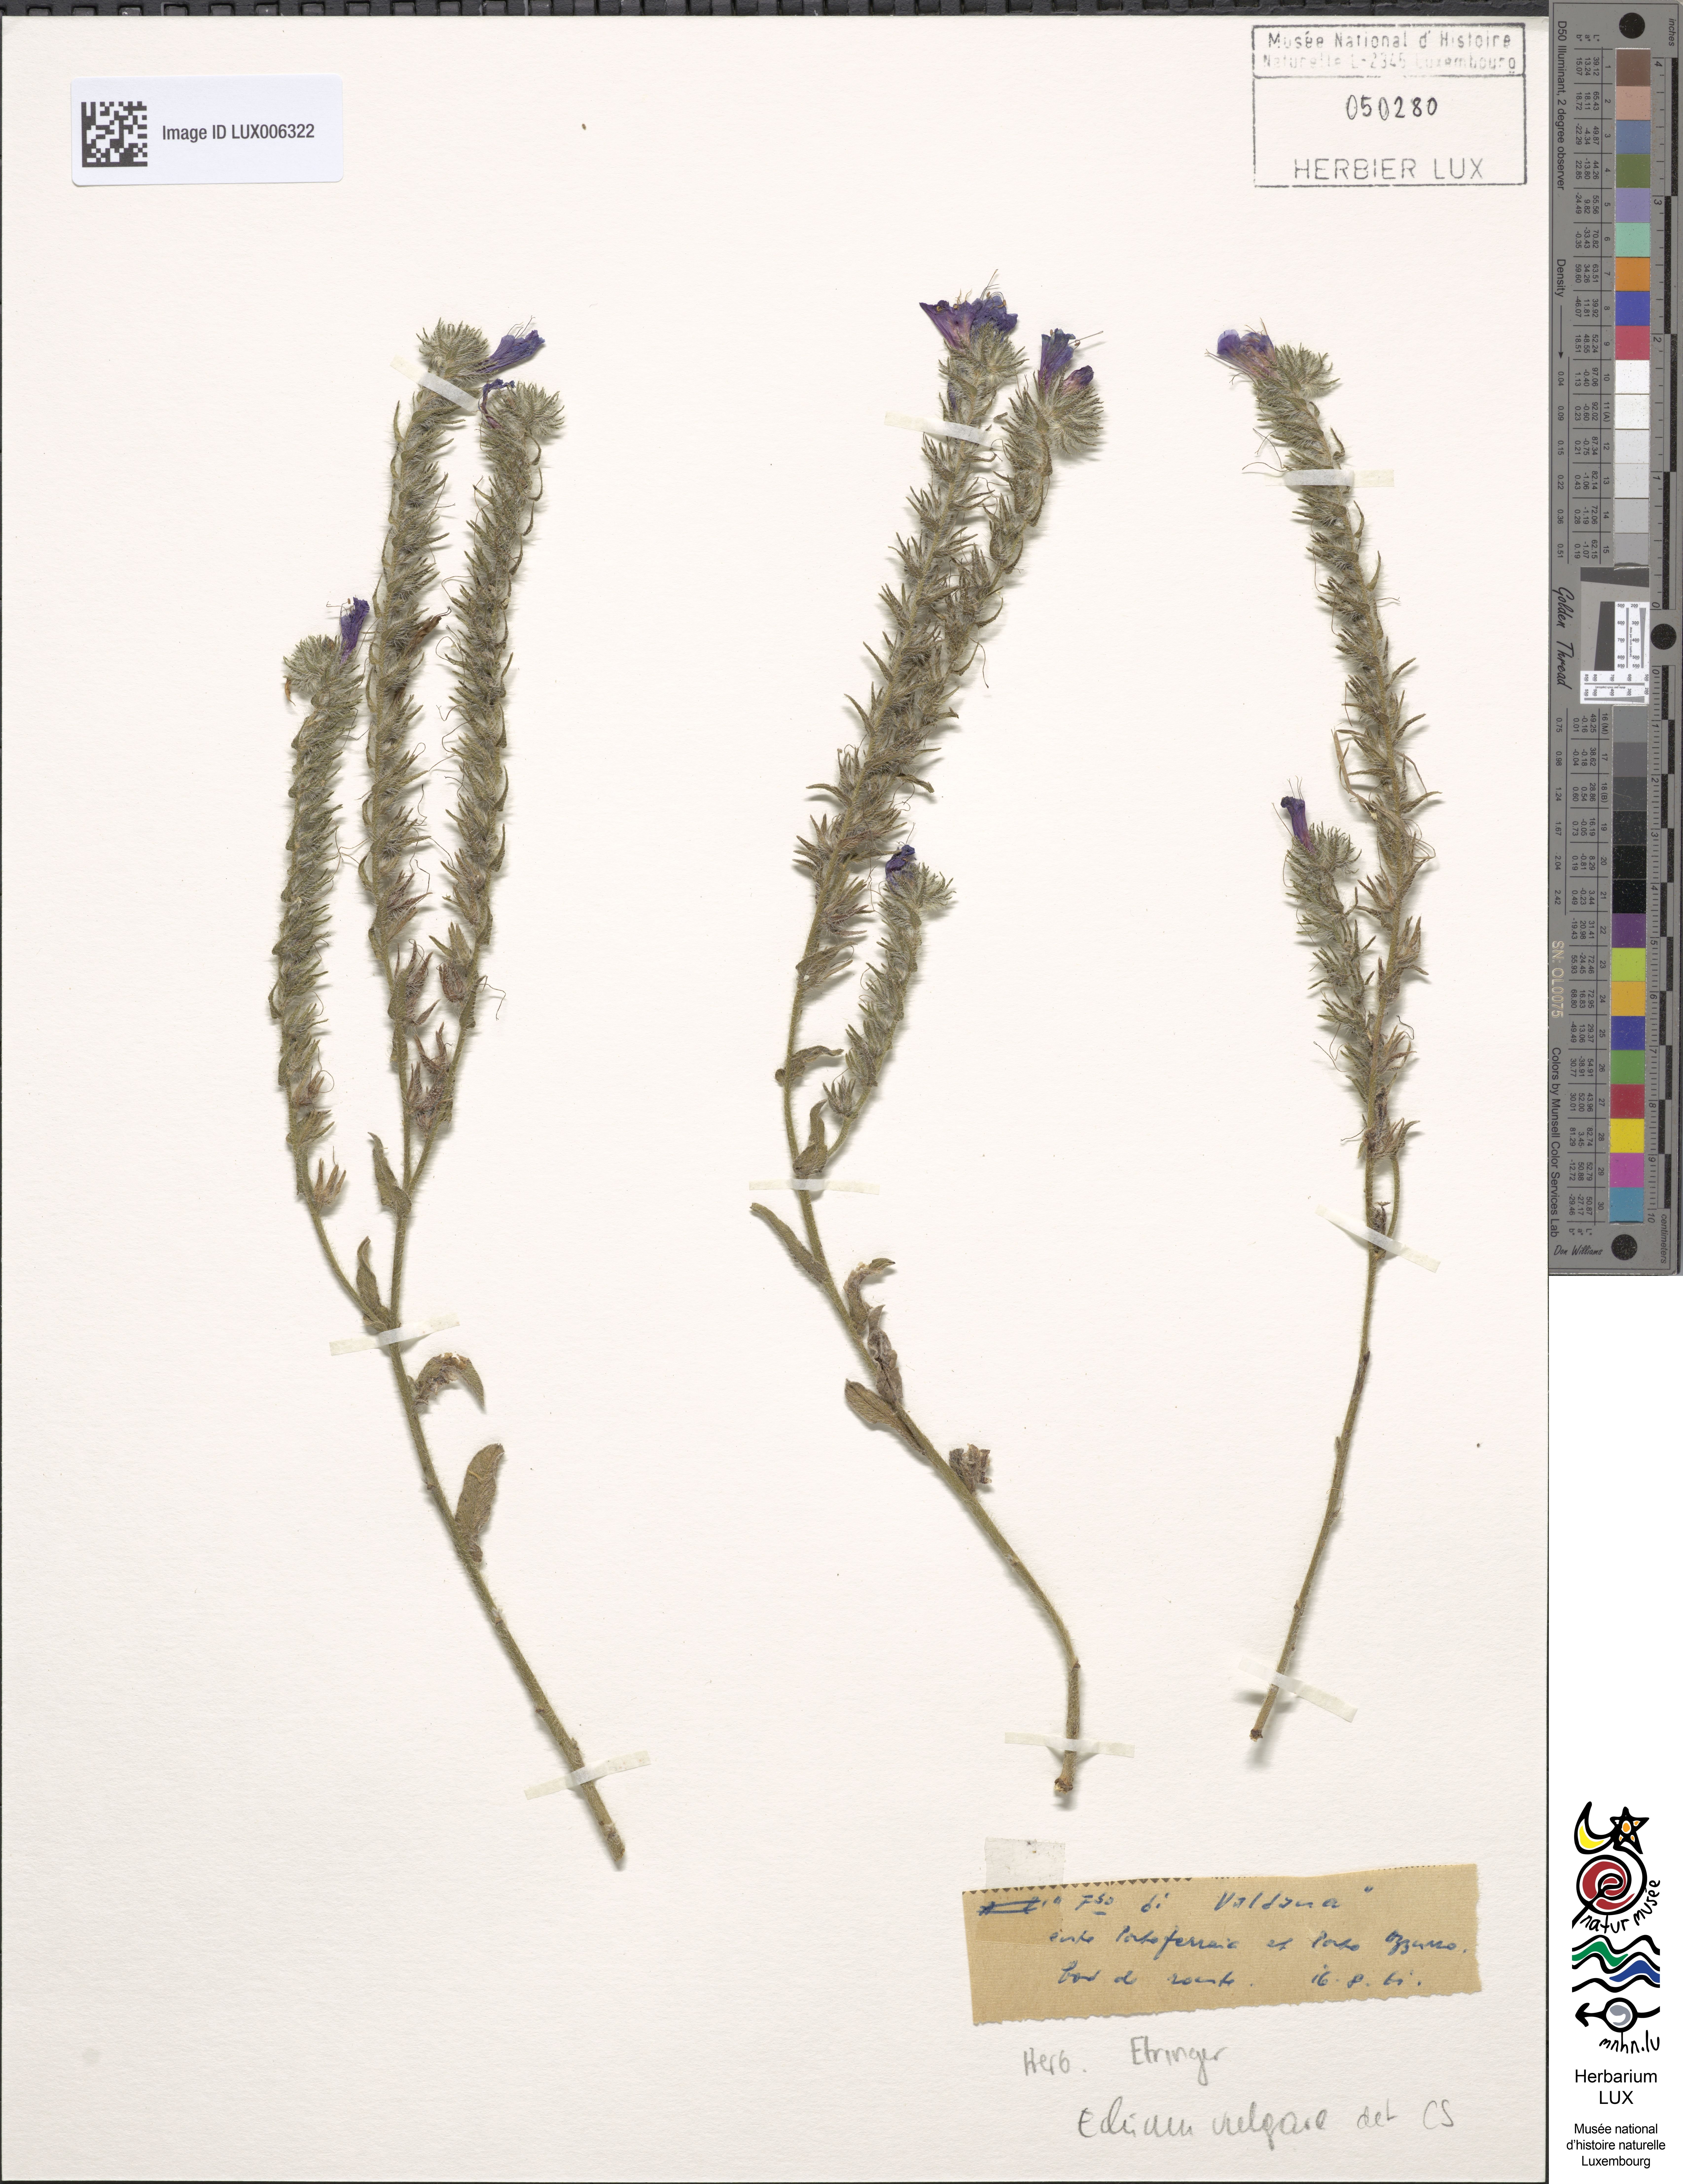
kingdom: Plantae
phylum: Tracheophyta
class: Magnoliopsida
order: Boraginales
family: Boraginaceae
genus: Echium
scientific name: Echium vulgare
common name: Common viper's bugloss
